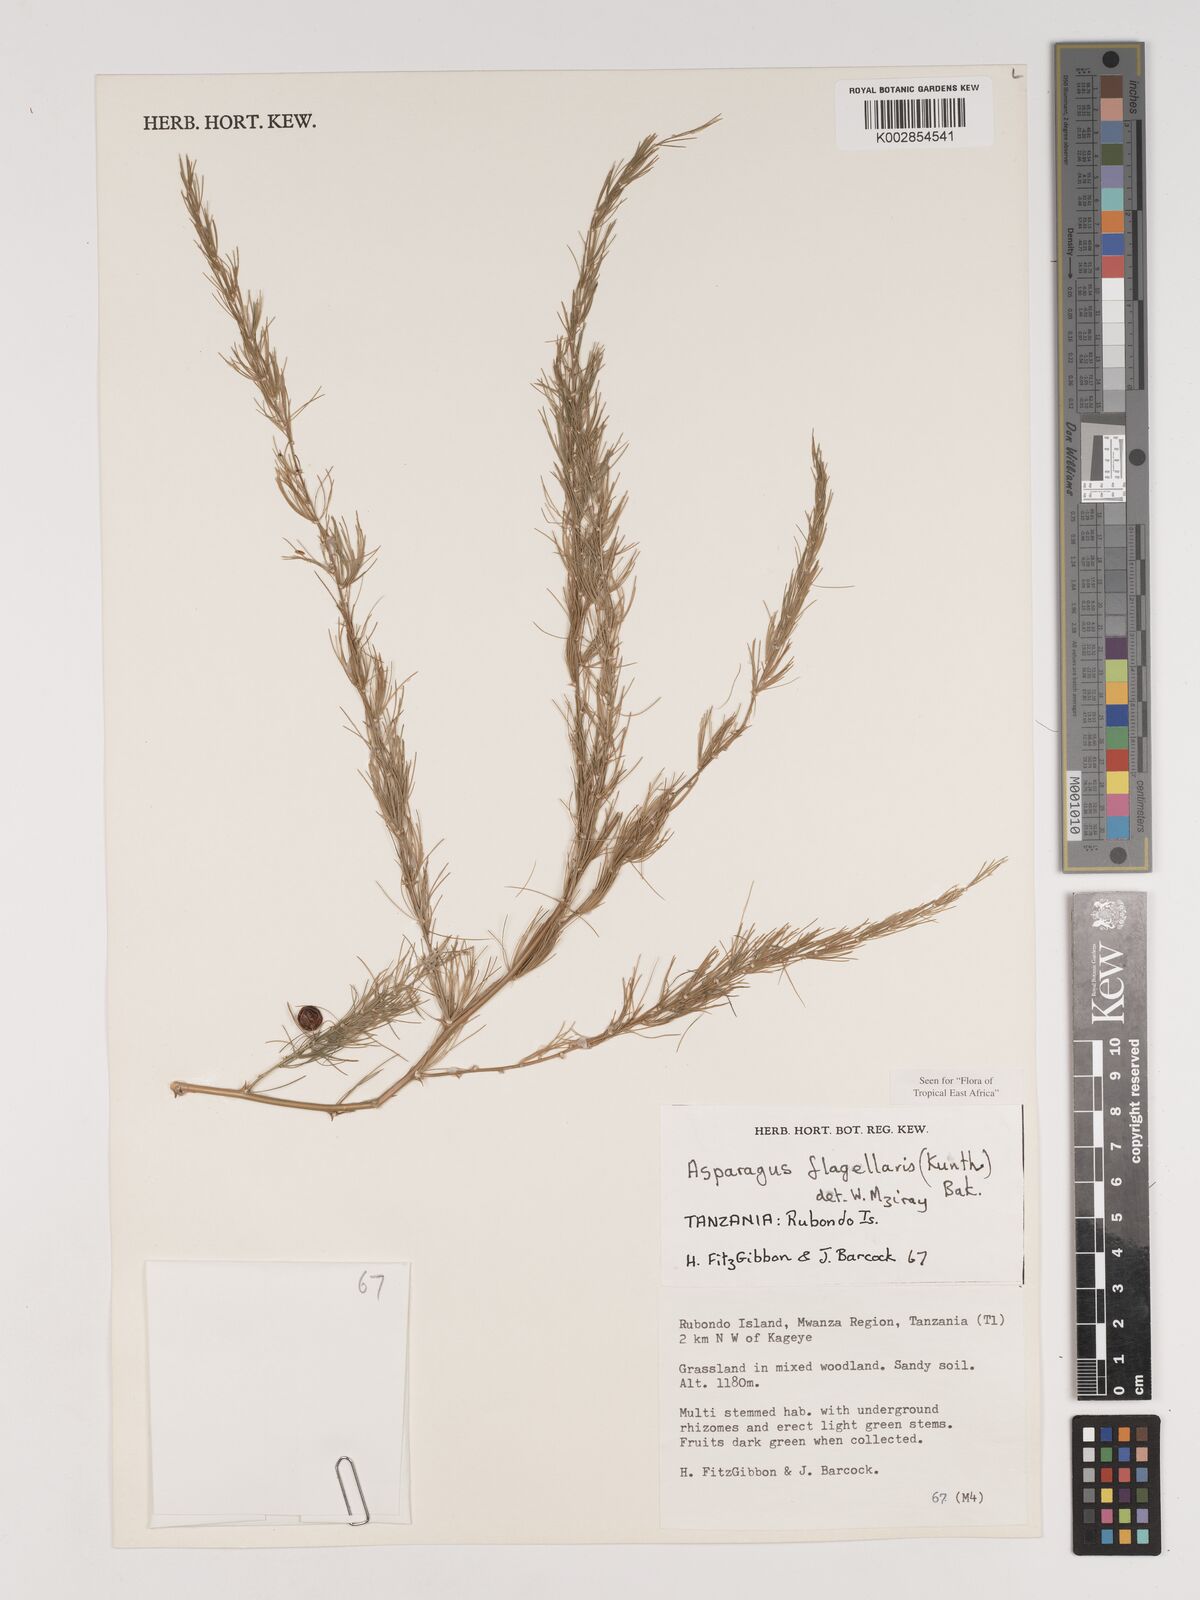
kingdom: Plantae
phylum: Tracheophyta
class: Liliopsida
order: Asparagales
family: Asparagaceae
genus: Asparagus
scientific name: Asparagus flagellaris
